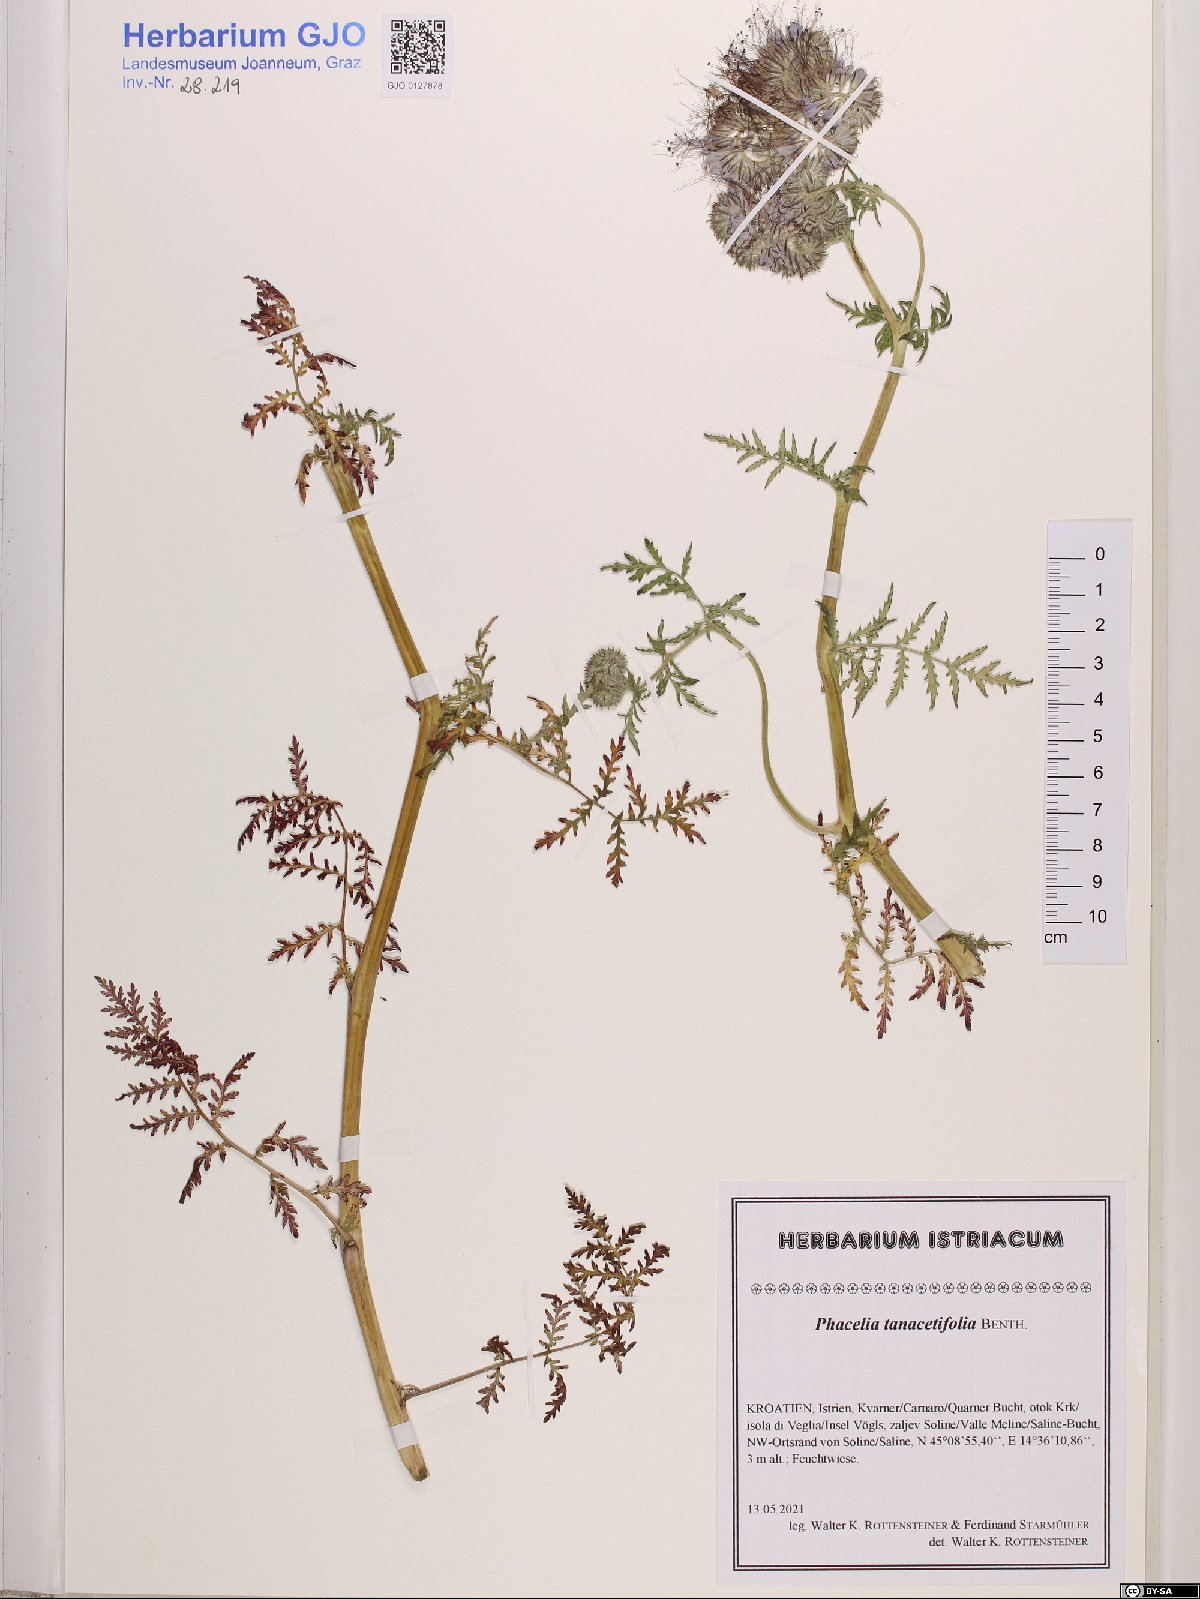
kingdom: Plantae
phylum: Tracheophyta
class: Magnoliopsida
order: Boraginales
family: Hydrophyllaceae
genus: Phacelia
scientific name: Phacelia tanacetifolia
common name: Phacelia
